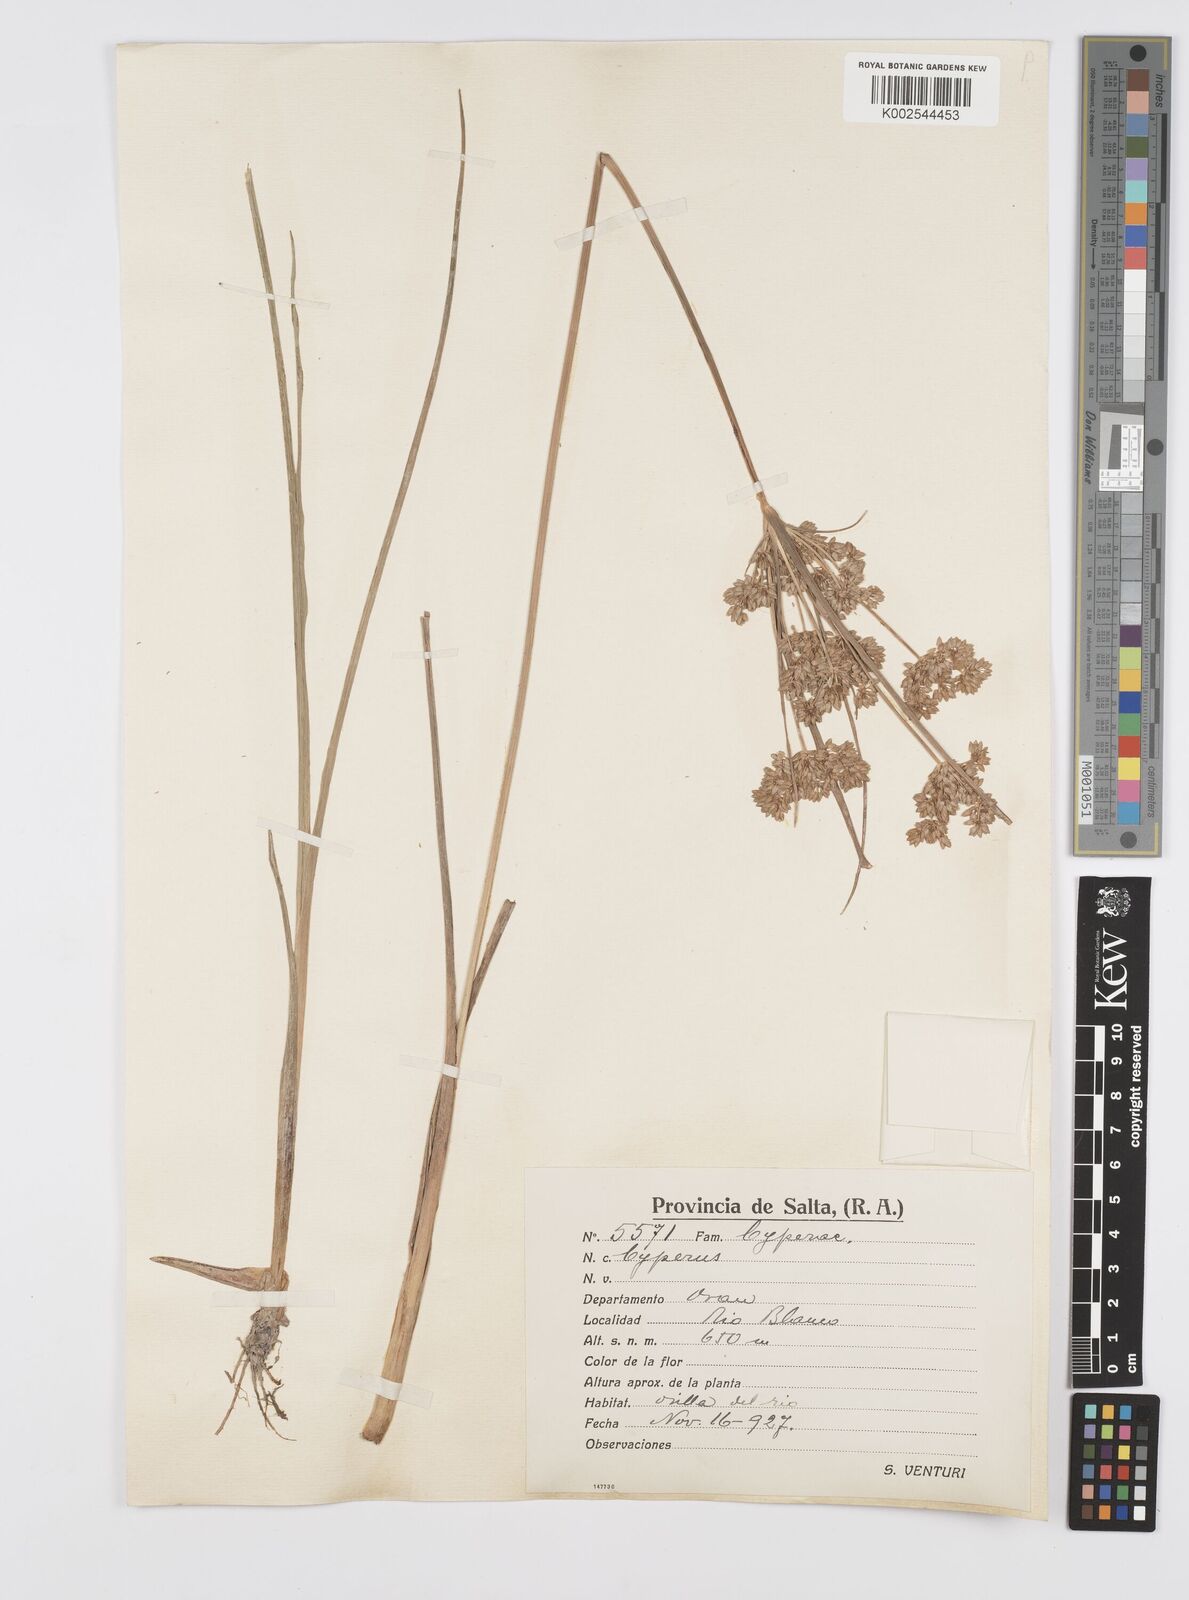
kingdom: Plantae
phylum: Tracheophyta
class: Liliopsida
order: Poales
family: Cyperaceae
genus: Cyperus
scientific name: Cyperus
